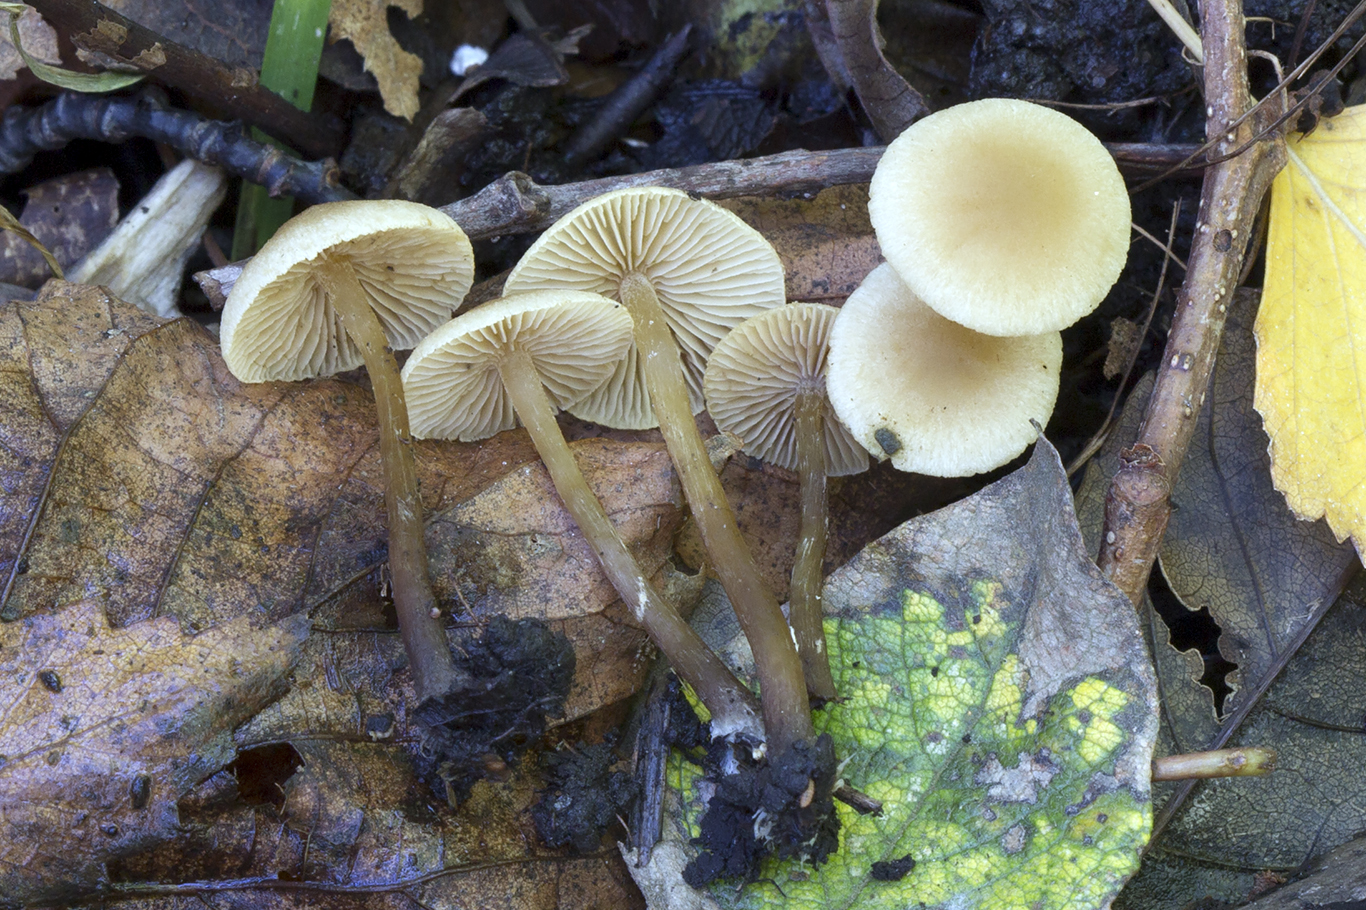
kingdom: Fungi
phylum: Basidiomycota
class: Agaricomycetes
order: Agaricales
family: Hymenogastraceae
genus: Naucoria
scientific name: Naucoria escharioides
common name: lys elle-knaphat
